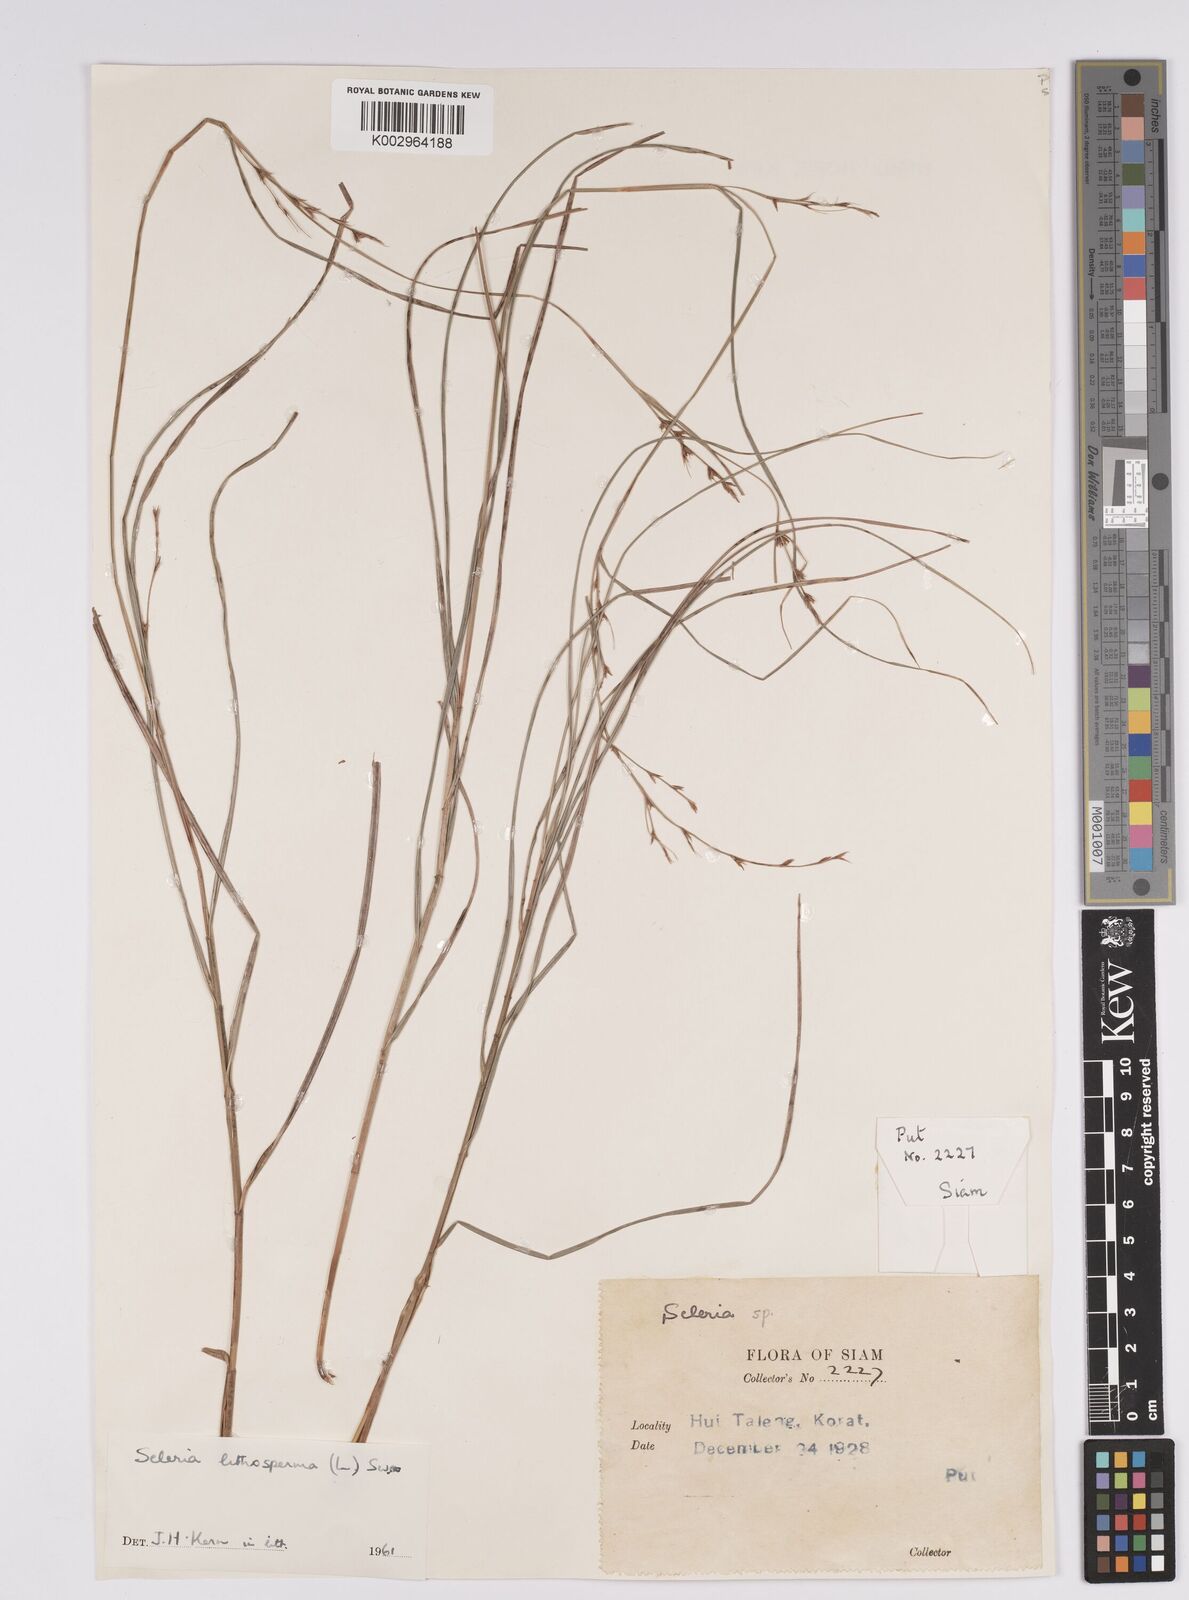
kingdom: Plantae
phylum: Tracheophyta
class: Liliopsida
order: Poales
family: Cyperaceae
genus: Scleria
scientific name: Scleria lithosperma
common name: Florida keys nut-rush
